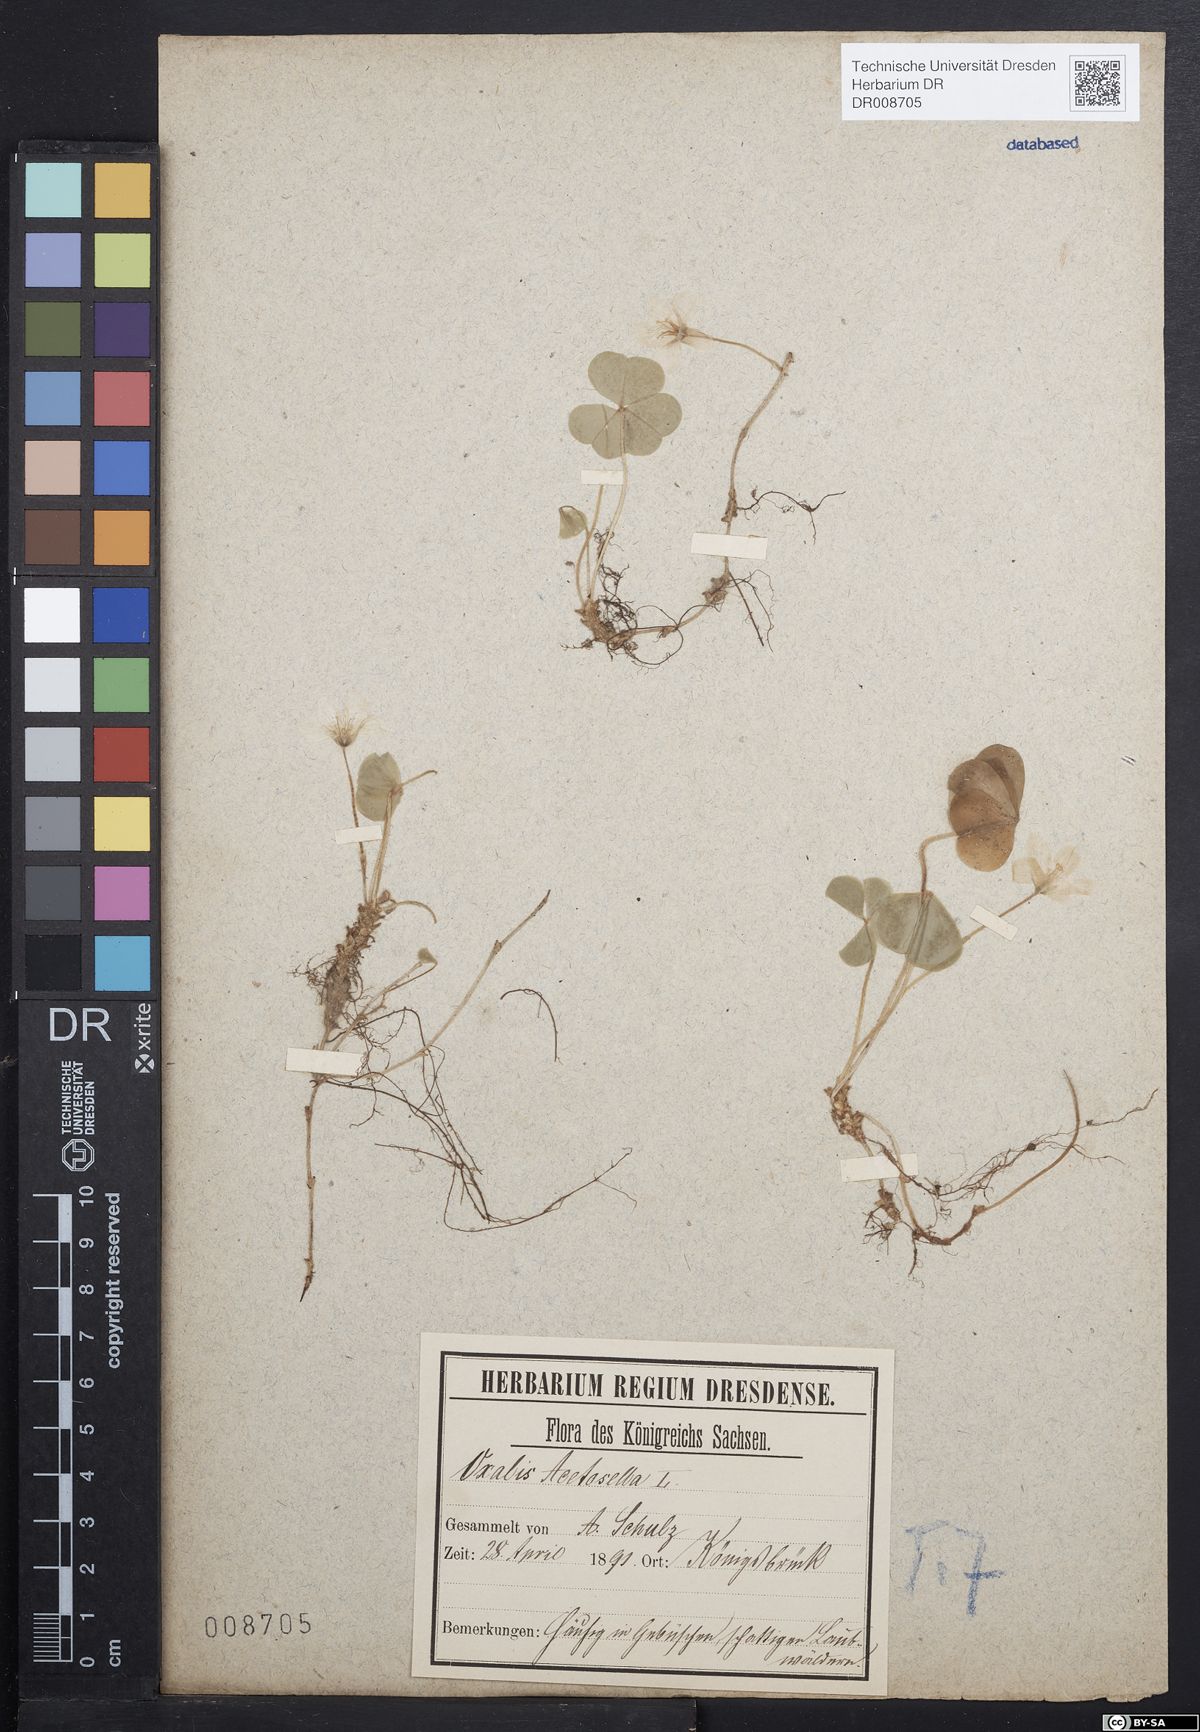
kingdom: Plantae
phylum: Tracheophyta
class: Magnoliopsida
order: Oxalidales
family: Oxalidaceae
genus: Oxalis
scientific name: Oxalis acetosella
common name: Wood-sorrel
